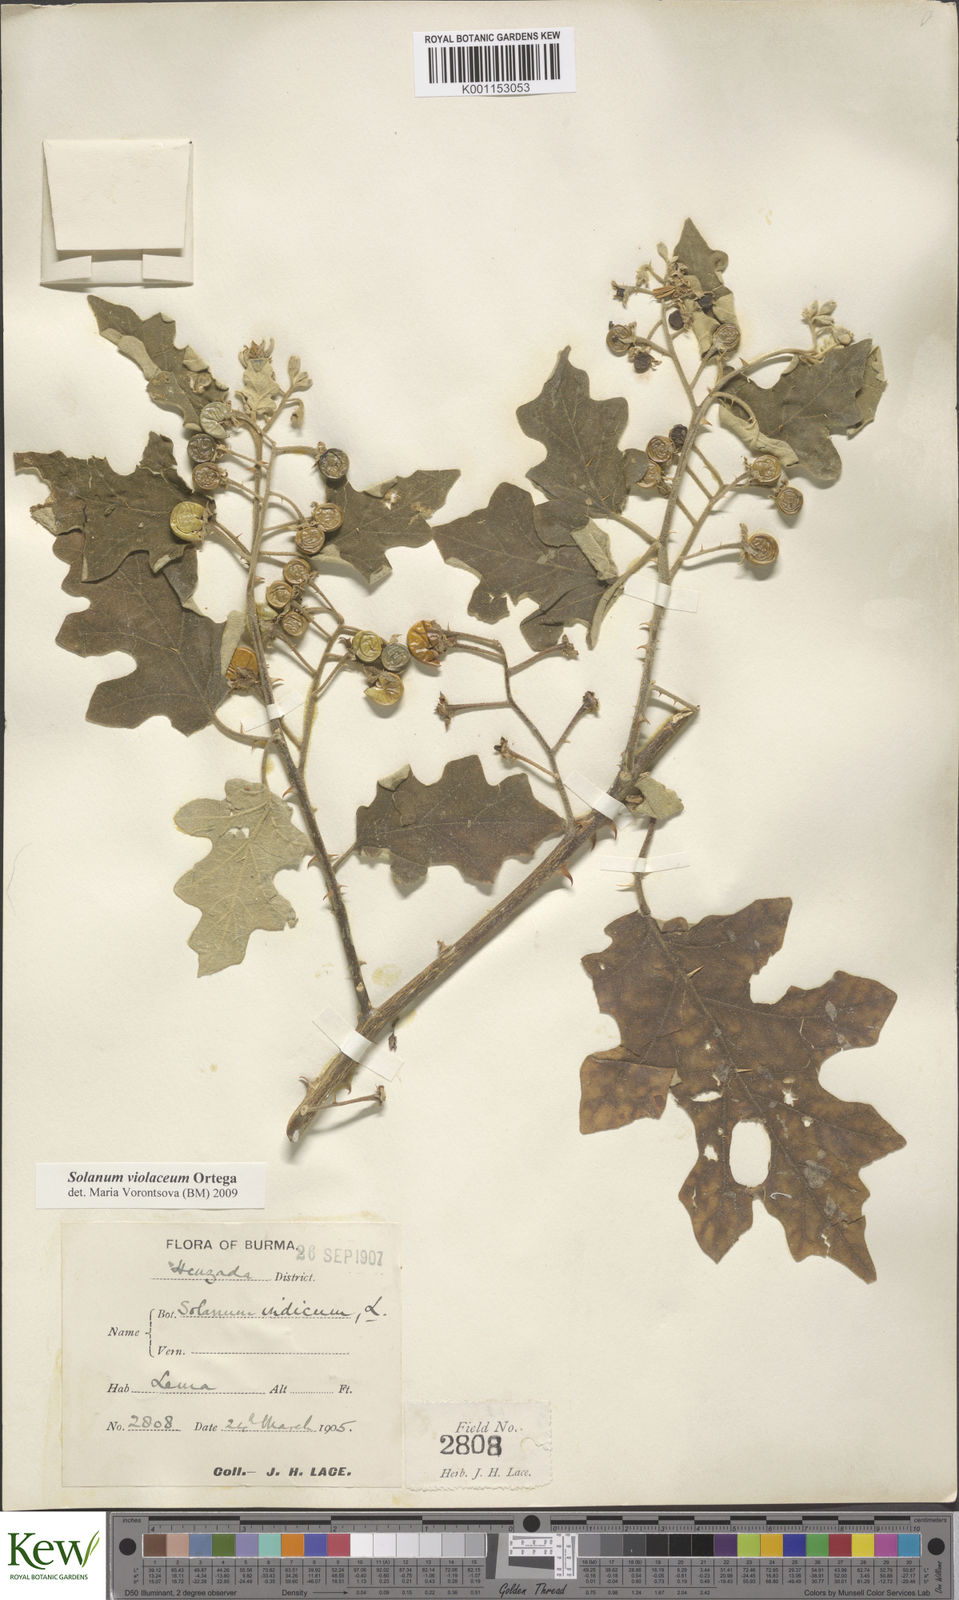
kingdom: Plantae
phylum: Tracheophyta
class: Magnoliopsida
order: Solanales
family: Solanaceae
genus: Solanum
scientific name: Solanum violaceum
